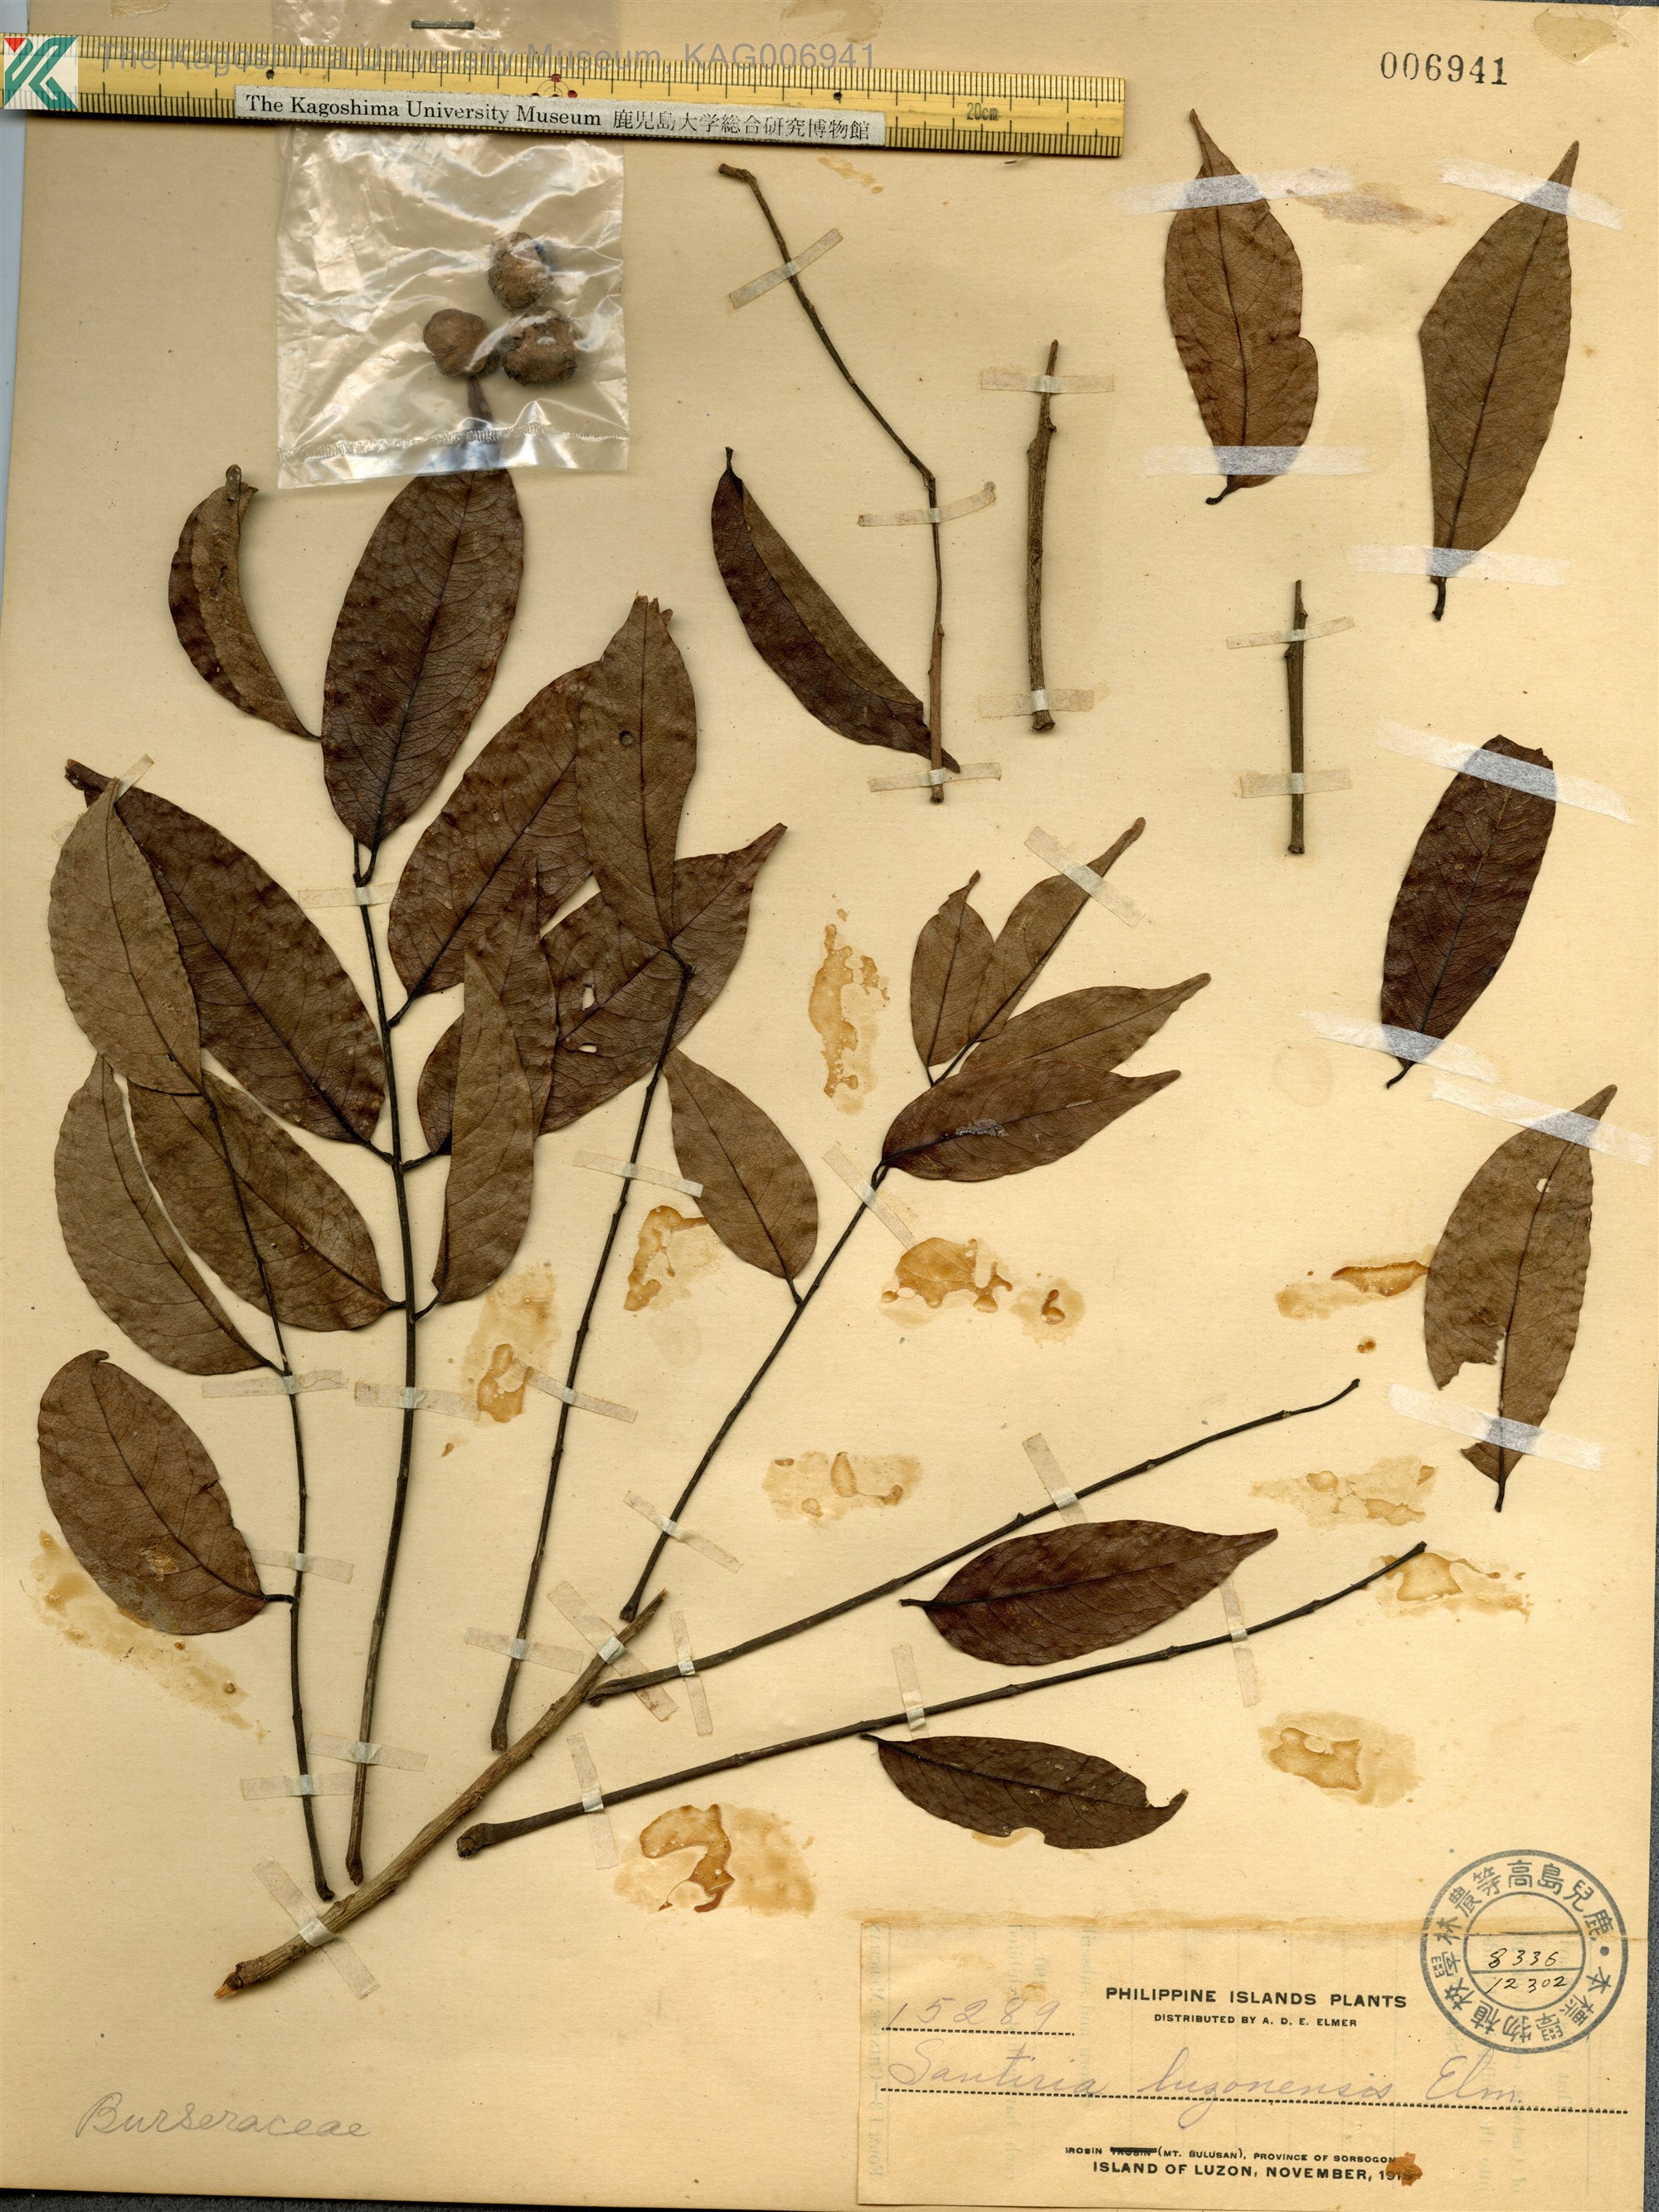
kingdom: Plantae
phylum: Tracheophyta
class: Magnoliopsida
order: Sapindales
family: Burseraceae
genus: Santiria
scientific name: Santiria luzonensis
